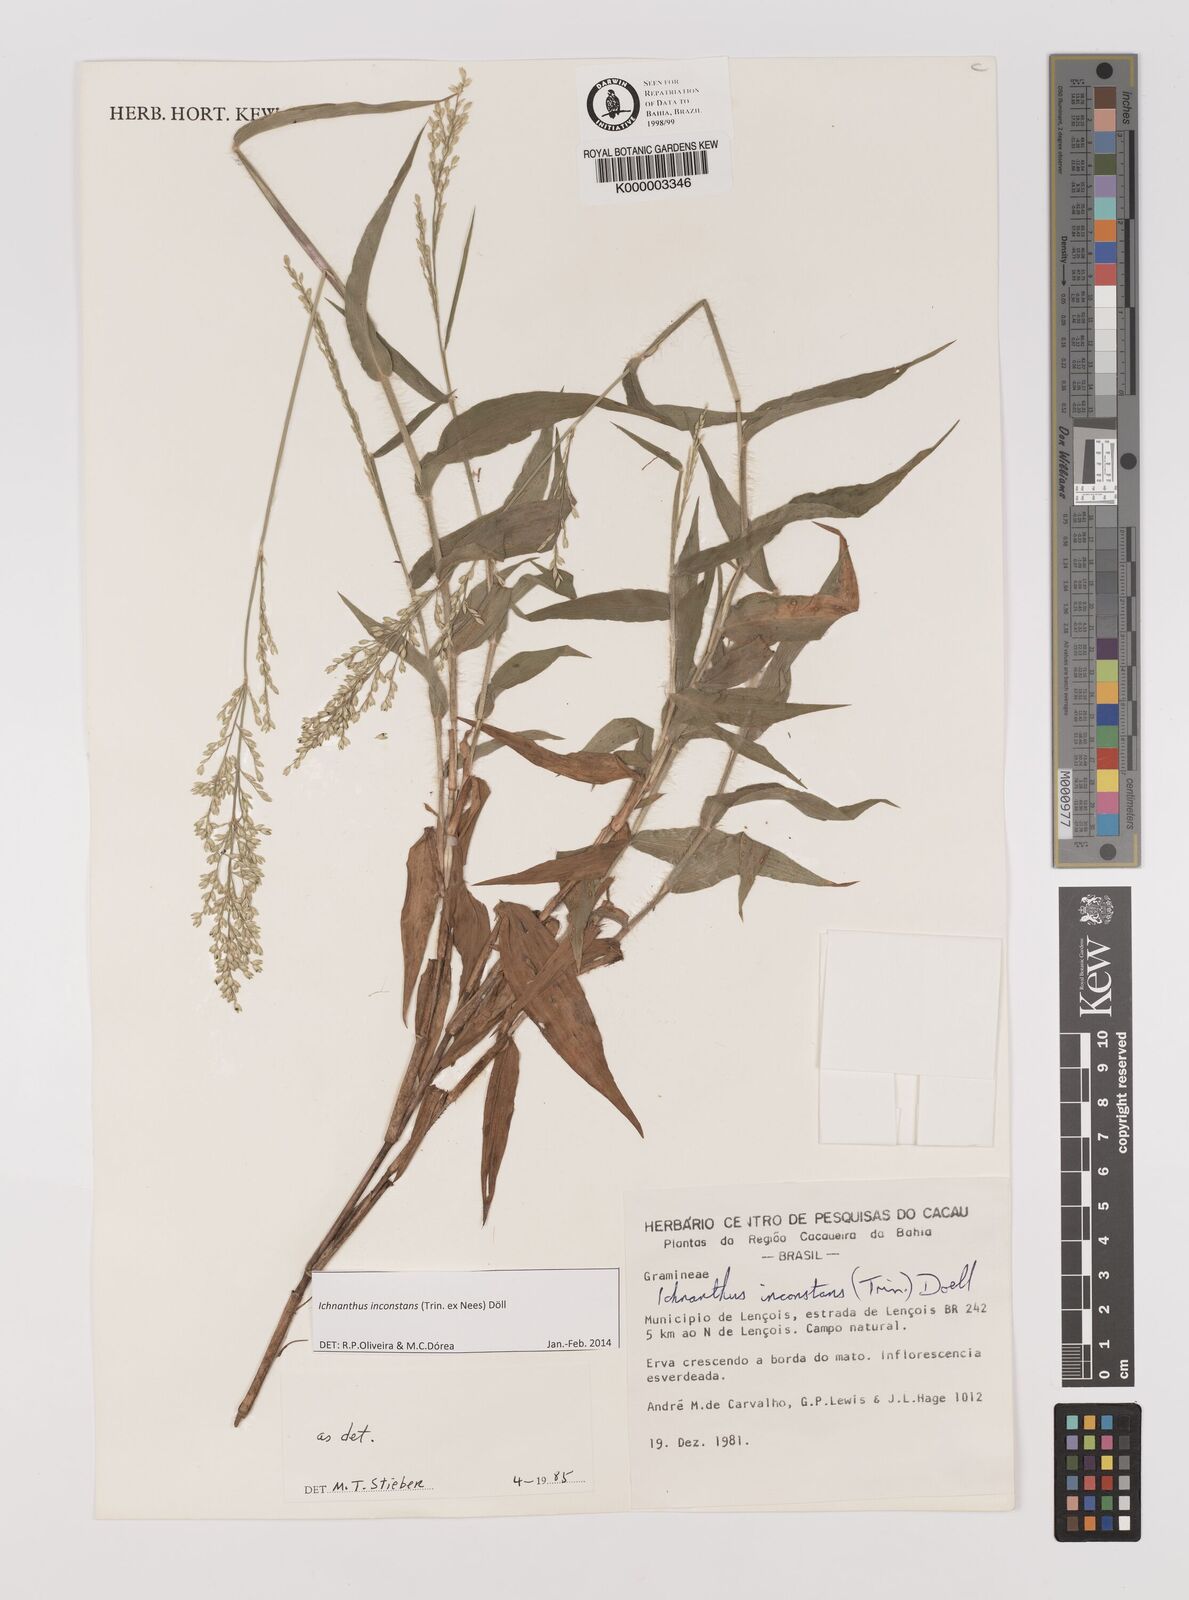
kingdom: Plantae
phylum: Tracheophyta
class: Liliopsida
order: Poales
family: Poaceae
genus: Ichnanthus
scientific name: Ichnanthus
